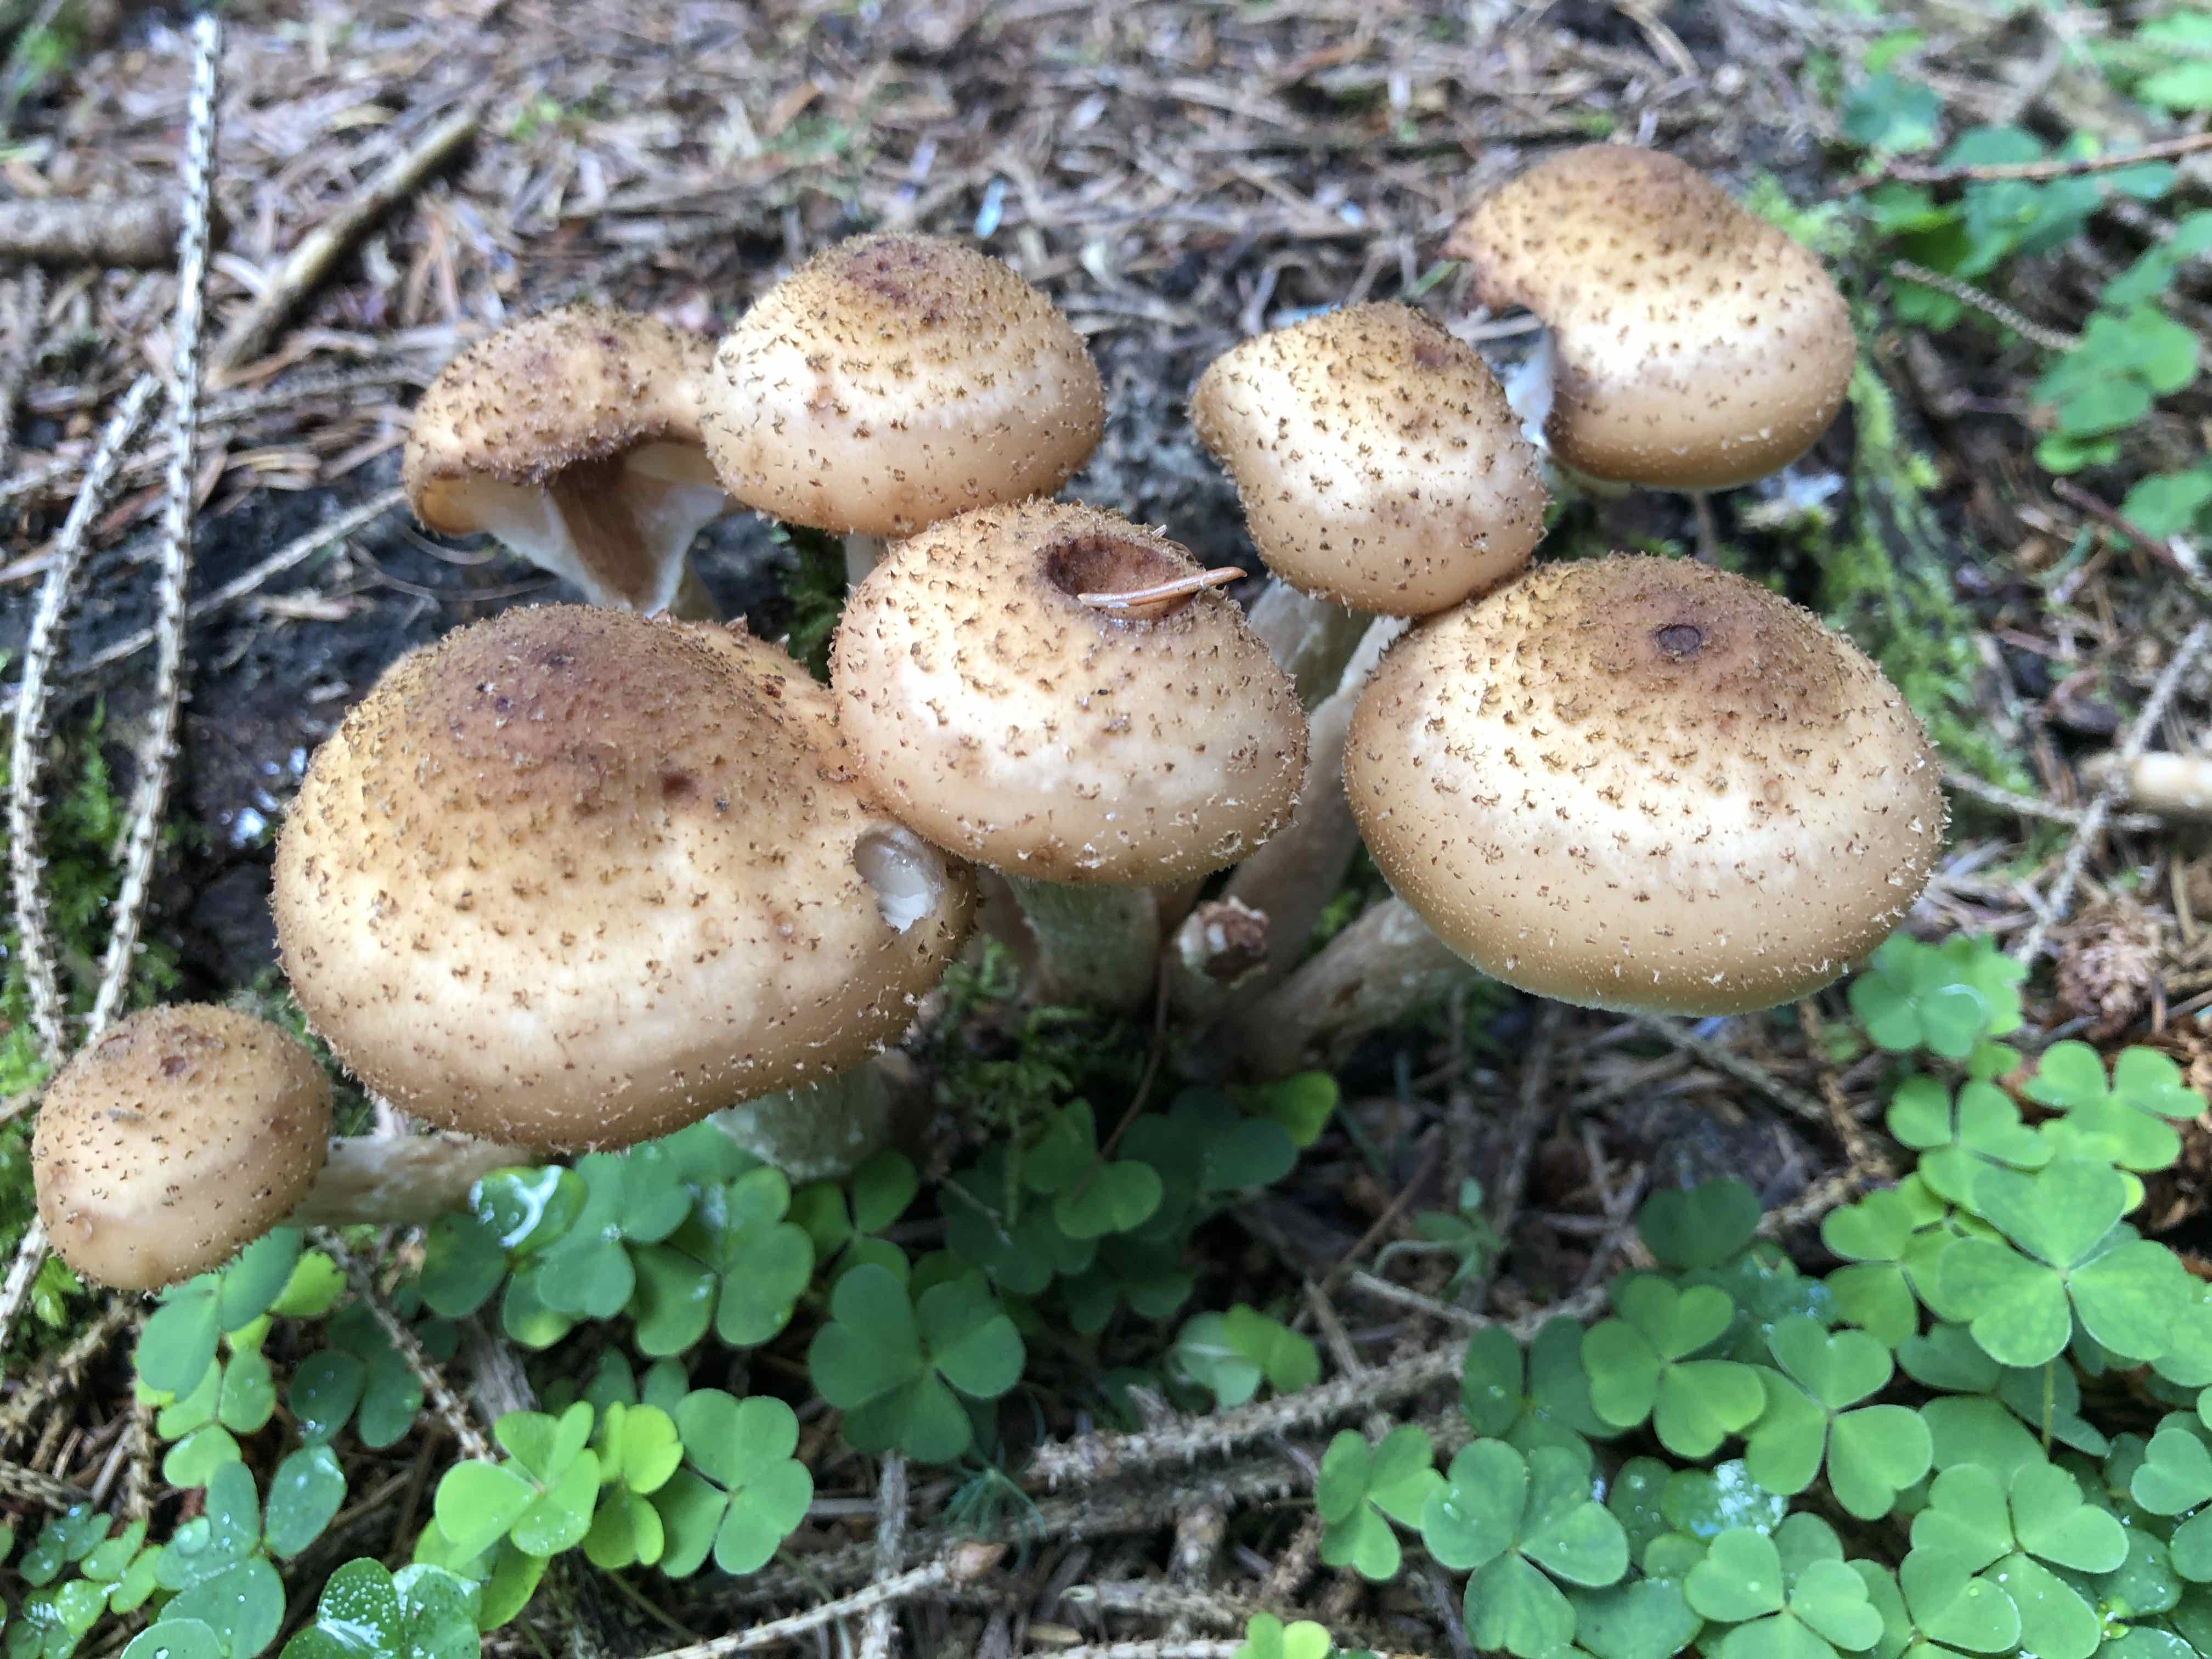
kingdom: Fungi
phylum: Basidiomycota
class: Agaricomycetes
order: Agaricales
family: Physalacriaceae
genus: Armillaria
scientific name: Armillaria ostoyae
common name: mørk honningsvamp
